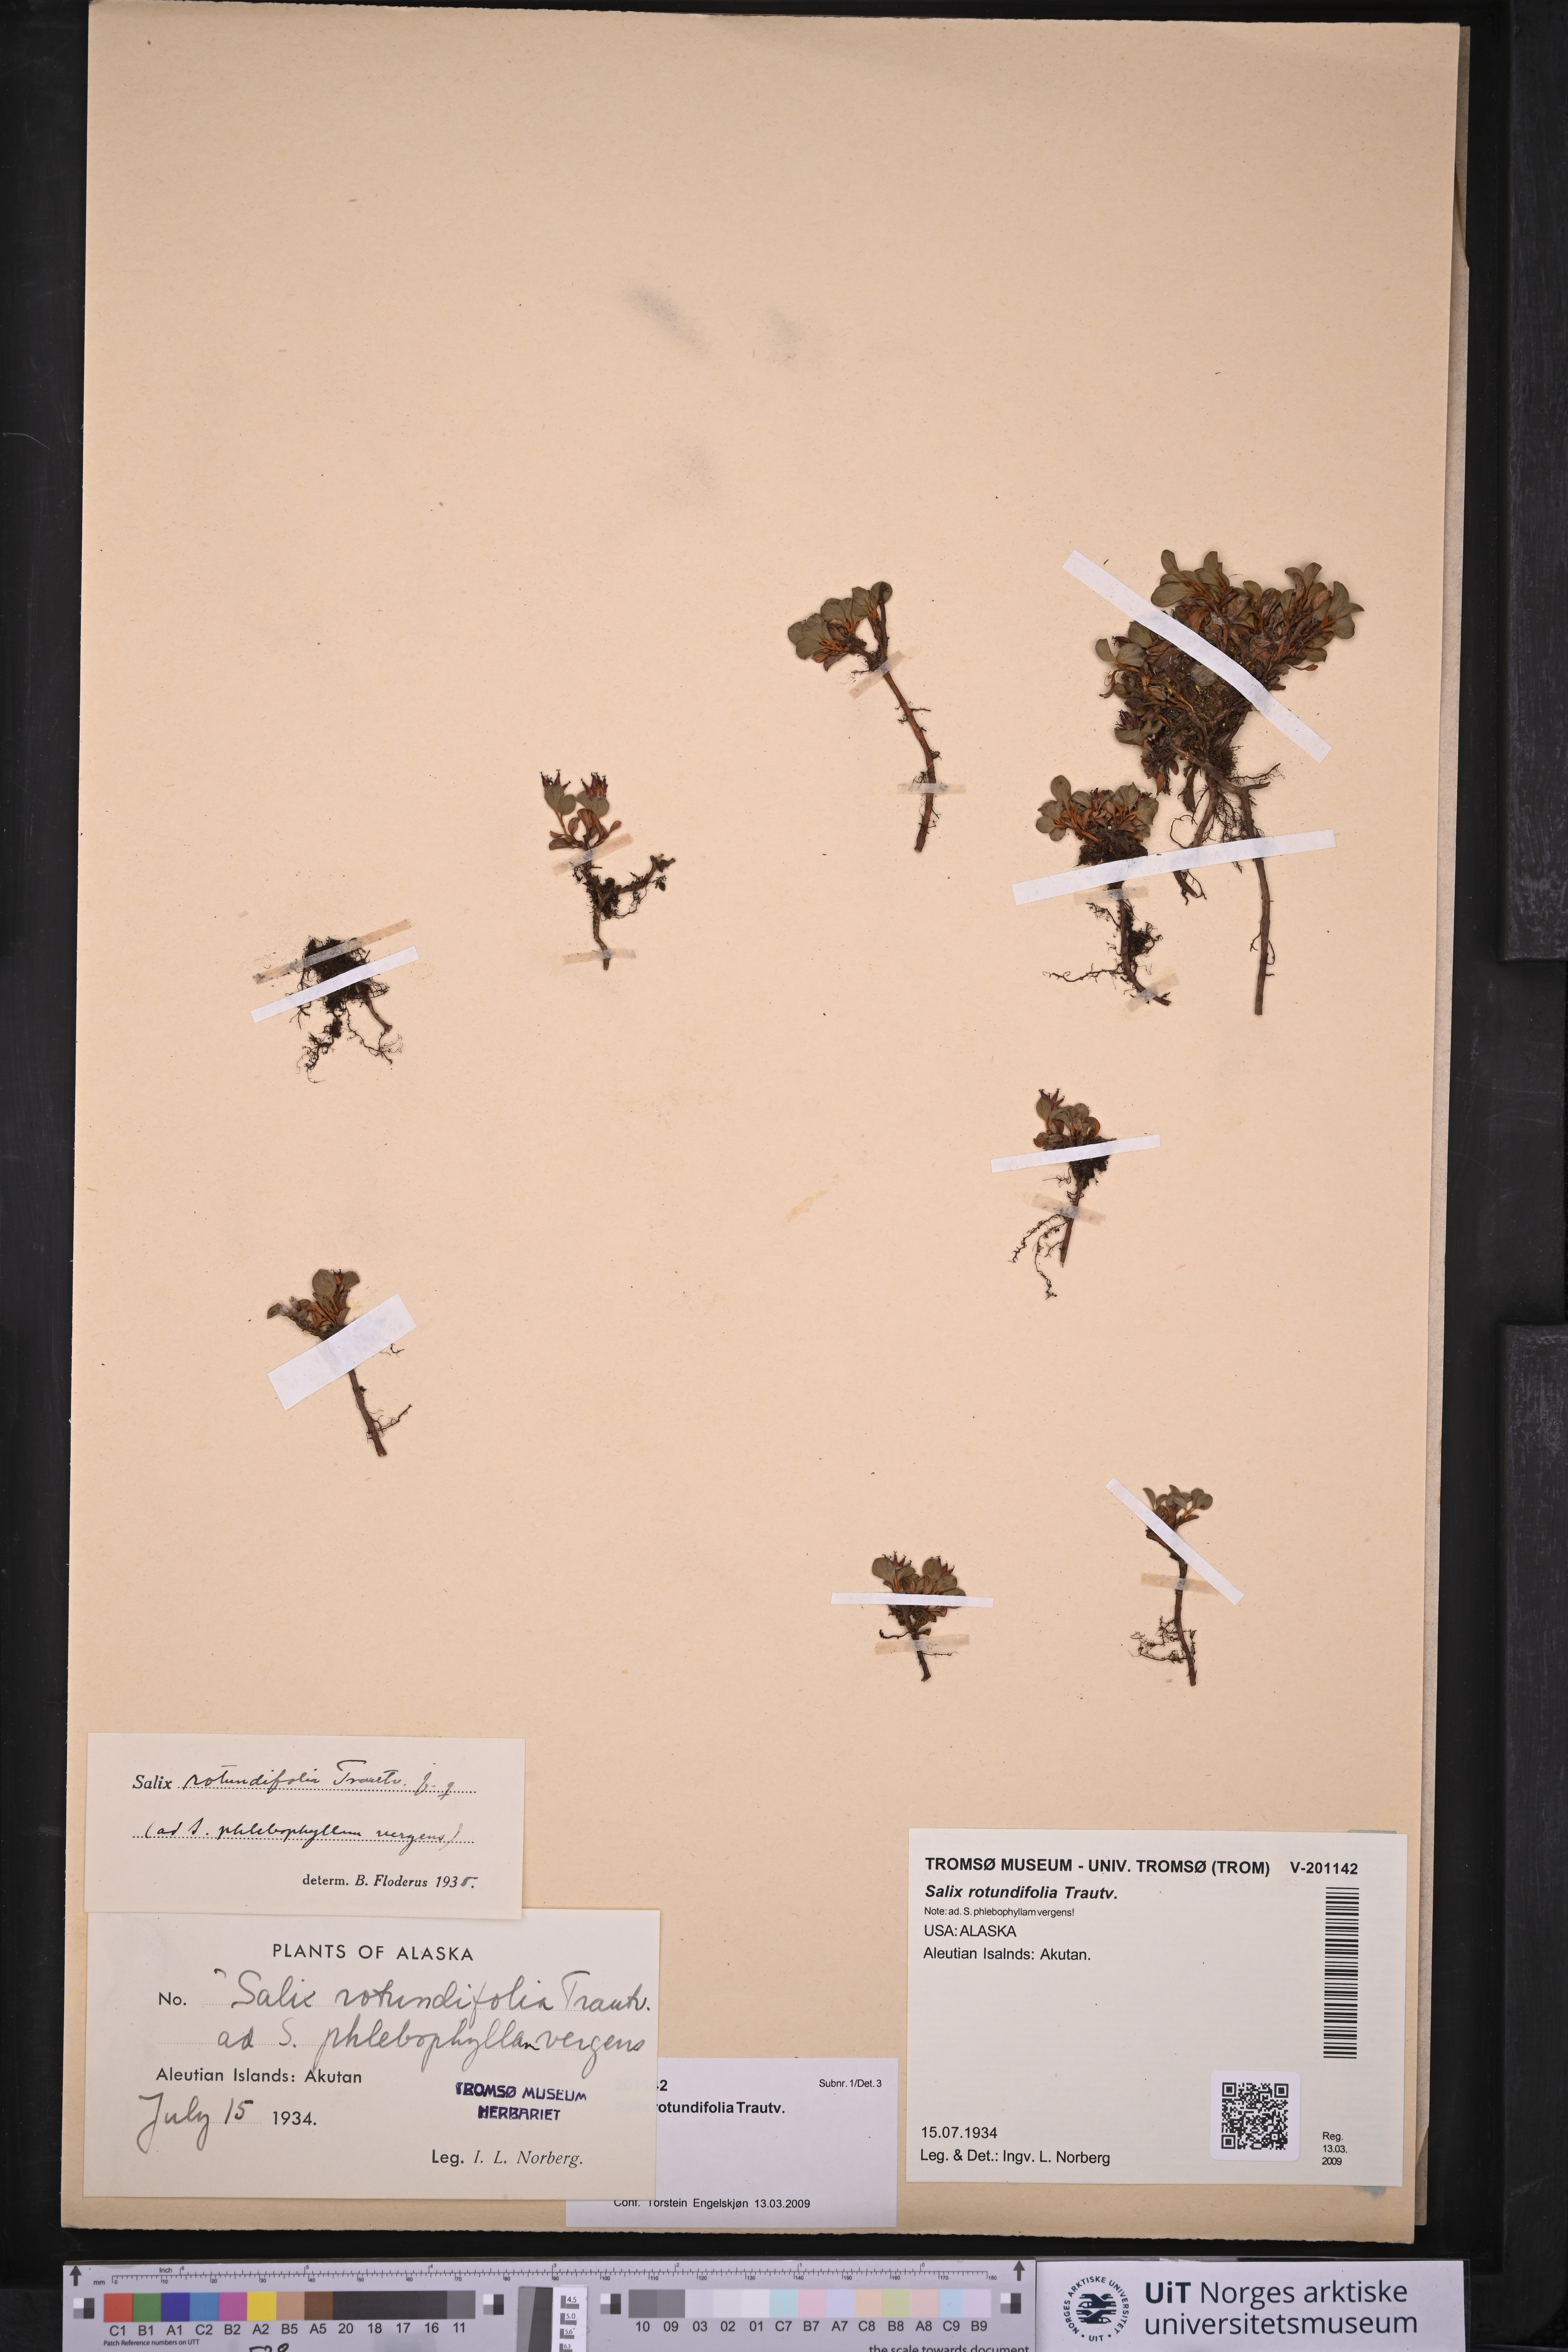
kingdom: Plantae
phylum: Tracheophyta
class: Magnoliopsida
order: Malpighiales
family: Salicaceae
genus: Salix
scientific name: Salix rotundifolia
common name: Least willow
